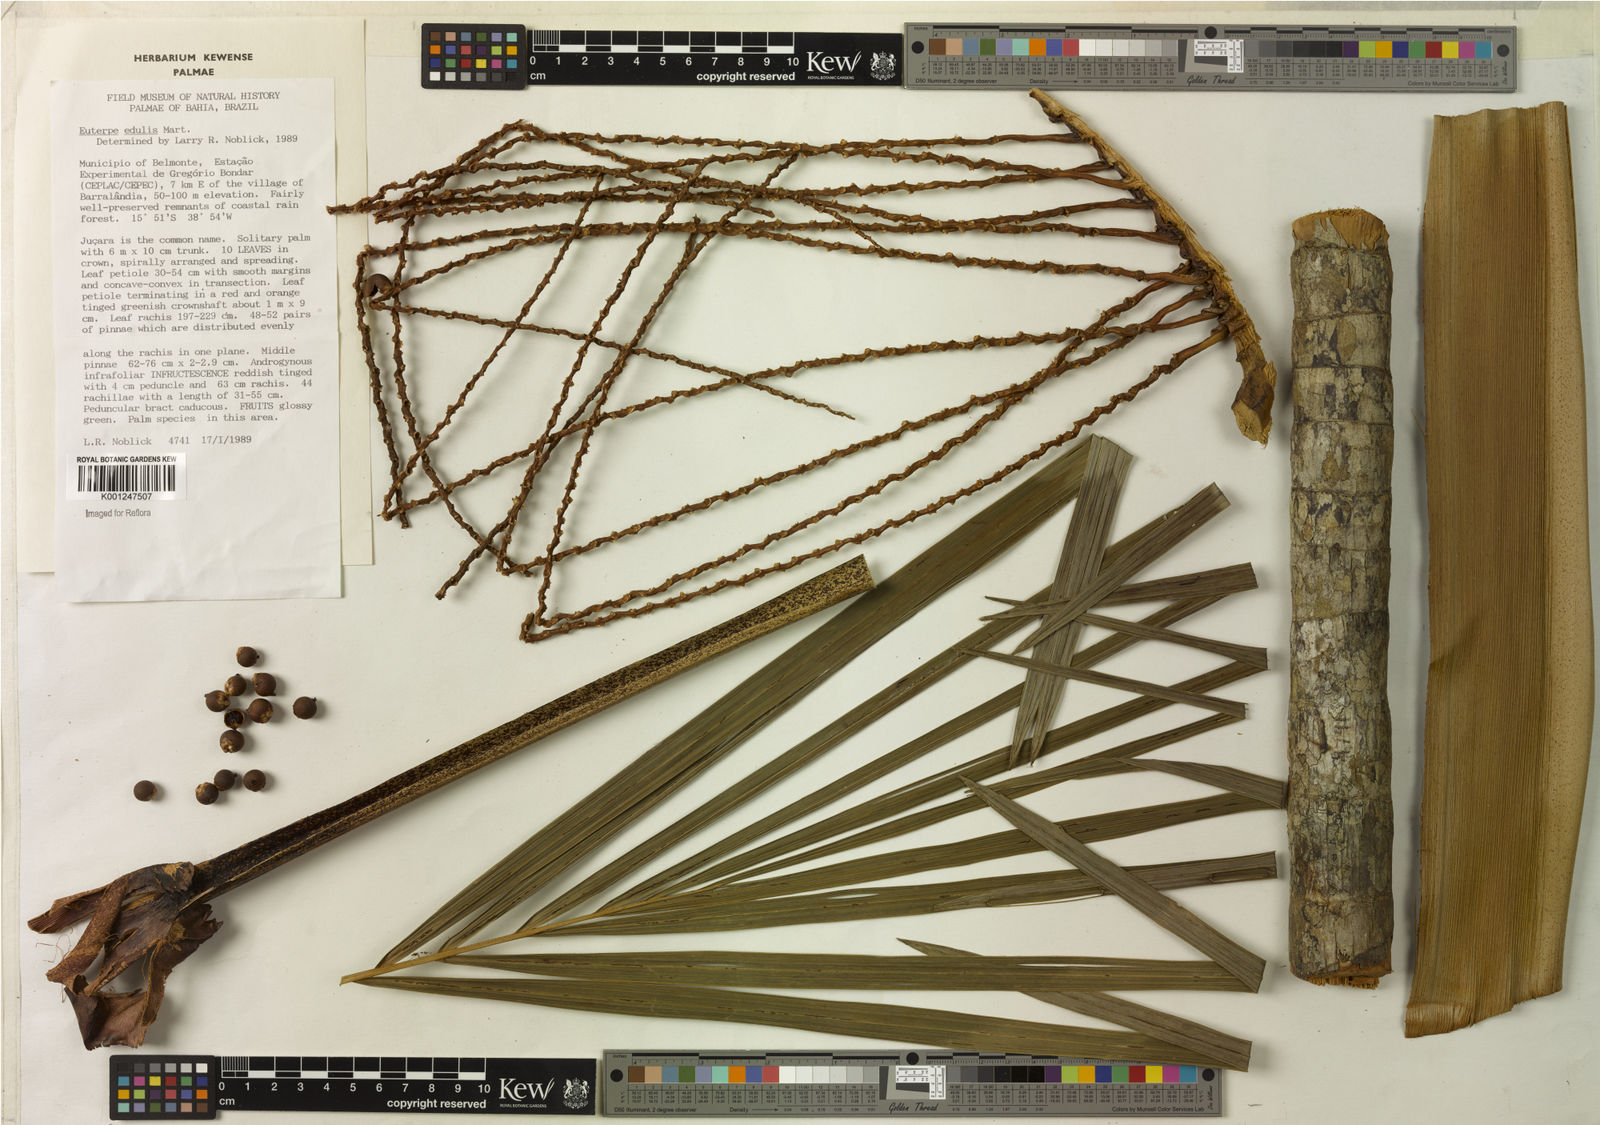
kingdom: Plantae
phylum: Tracheophyta
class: Liliopsida
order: Arecales
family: Arecaceae
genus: Euterpe
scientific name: Euterpe edulis
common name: Assai palm
